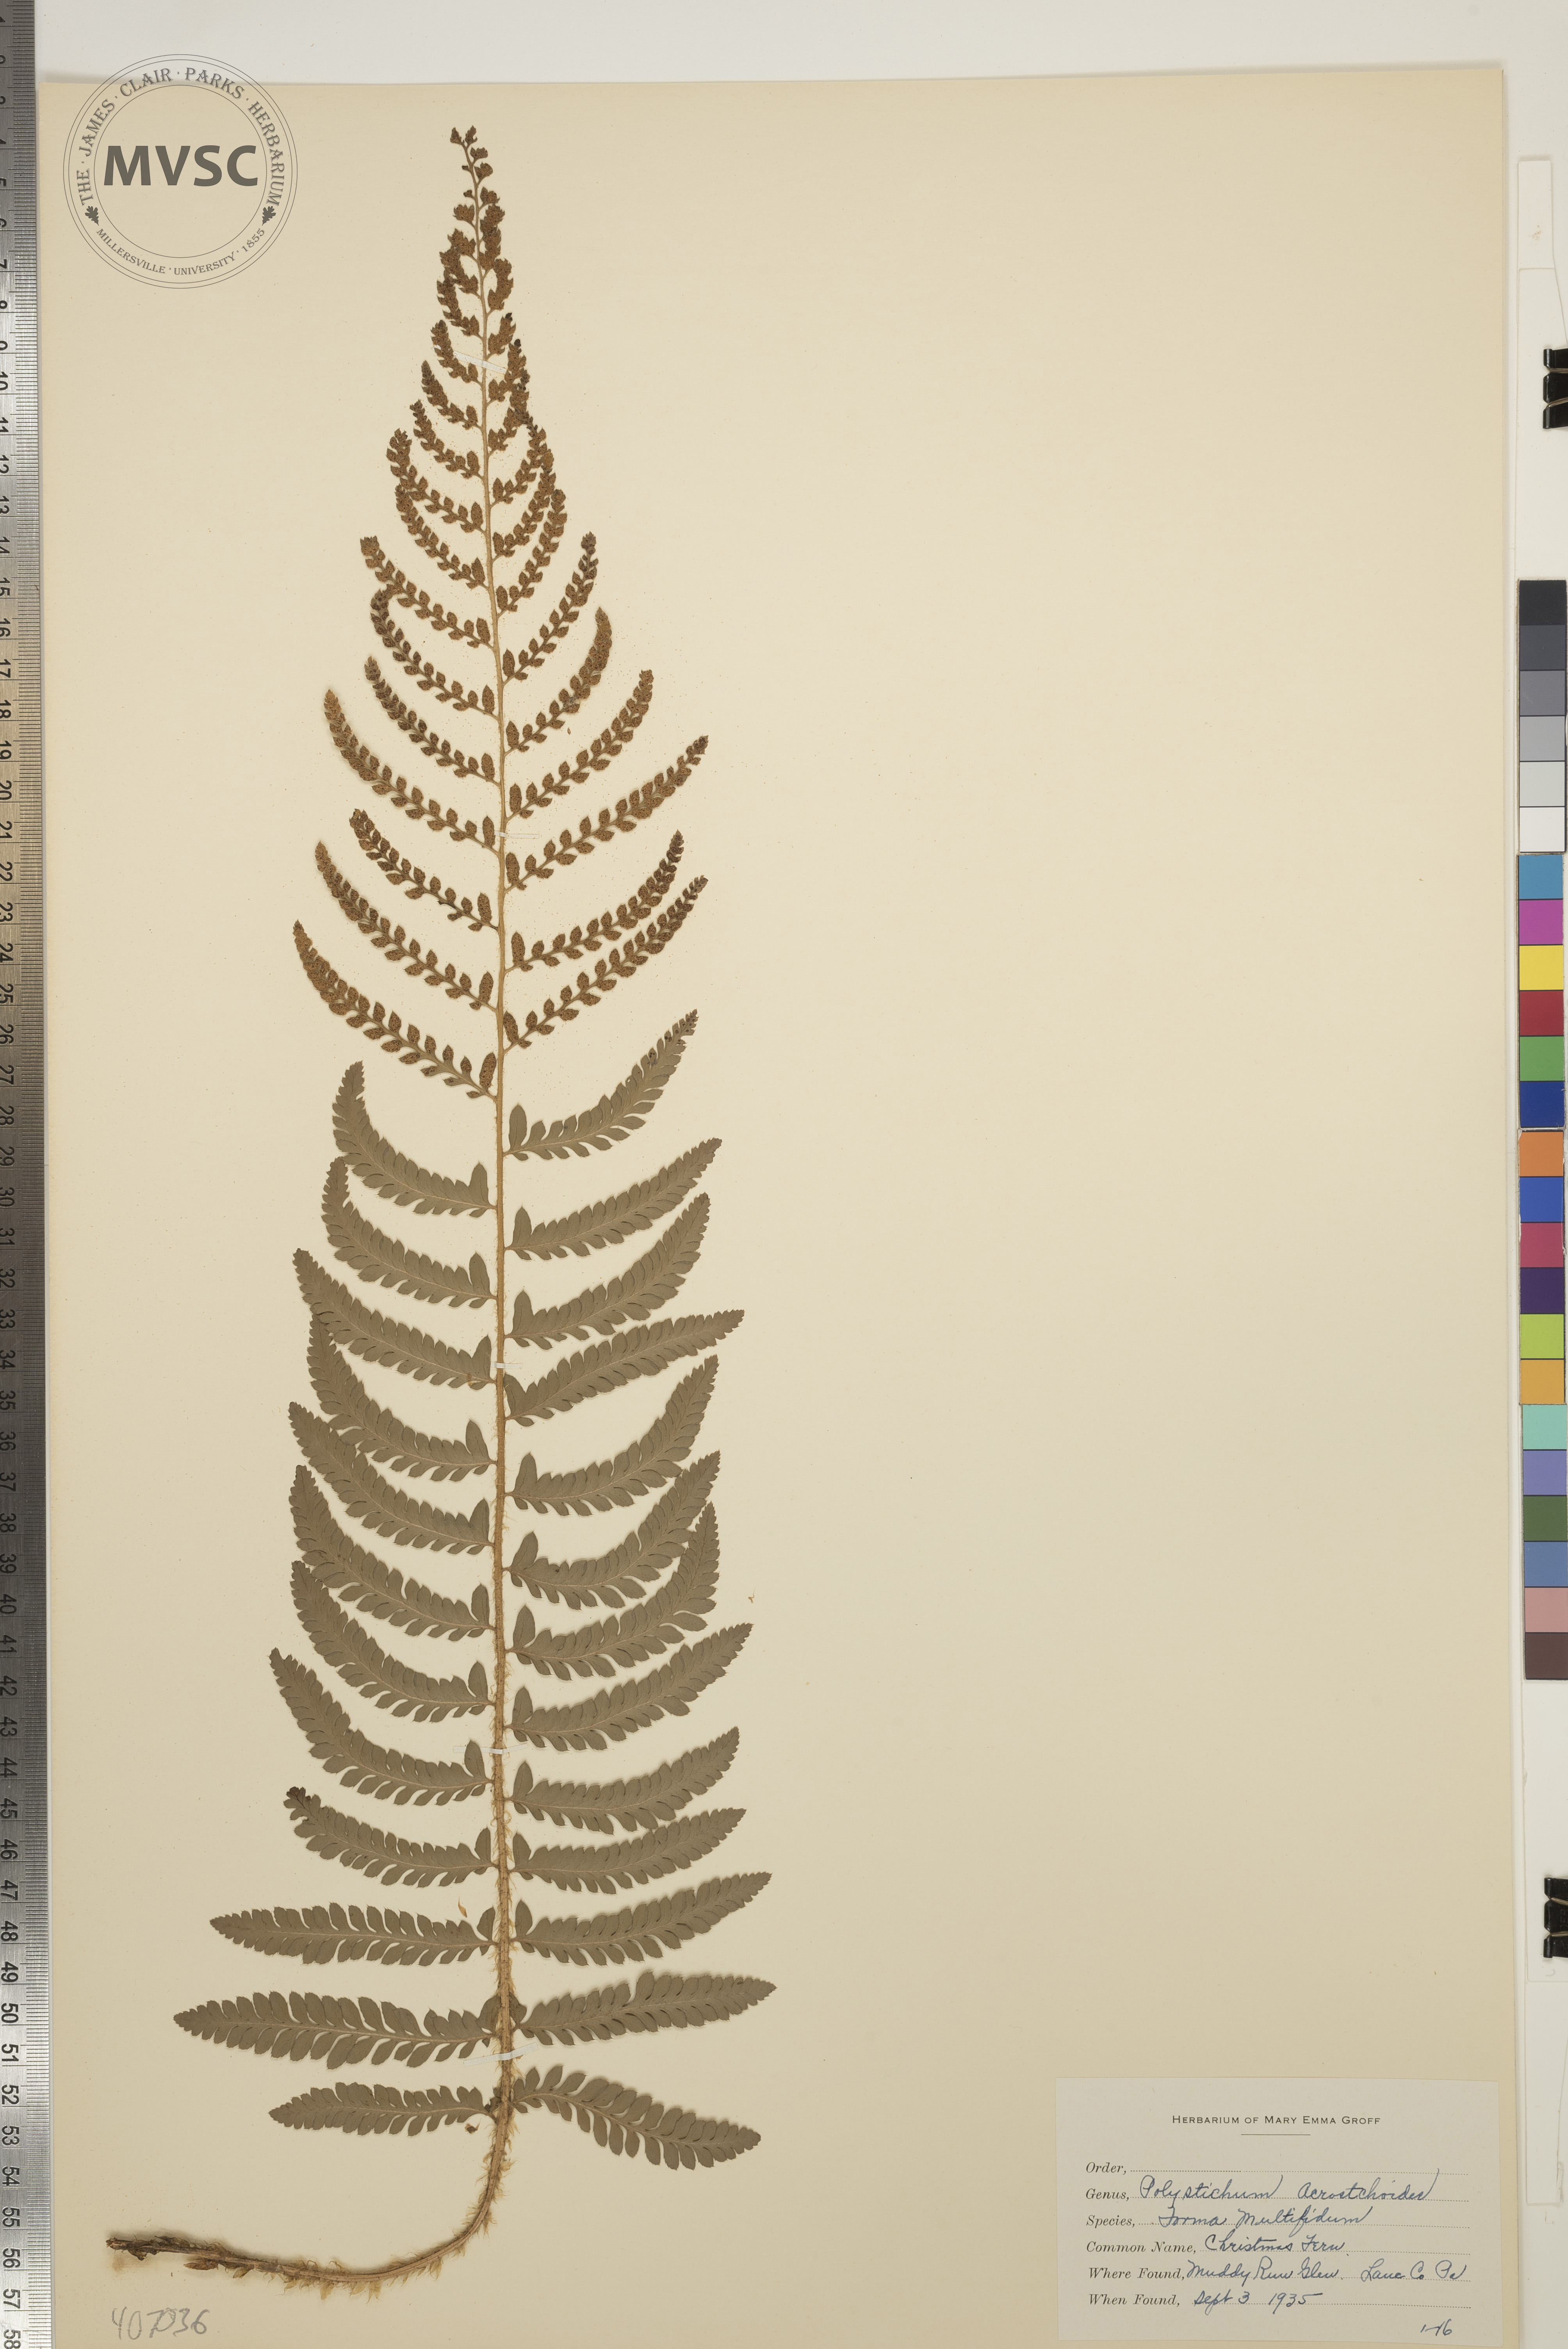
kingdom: Plantae
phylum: Tracheophyta
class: Polypodiopsida
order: Polypodiales
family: Dryopteridaceae
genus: Polystichum
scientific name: Polystichum acrostichoides
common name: Christmas Fern
